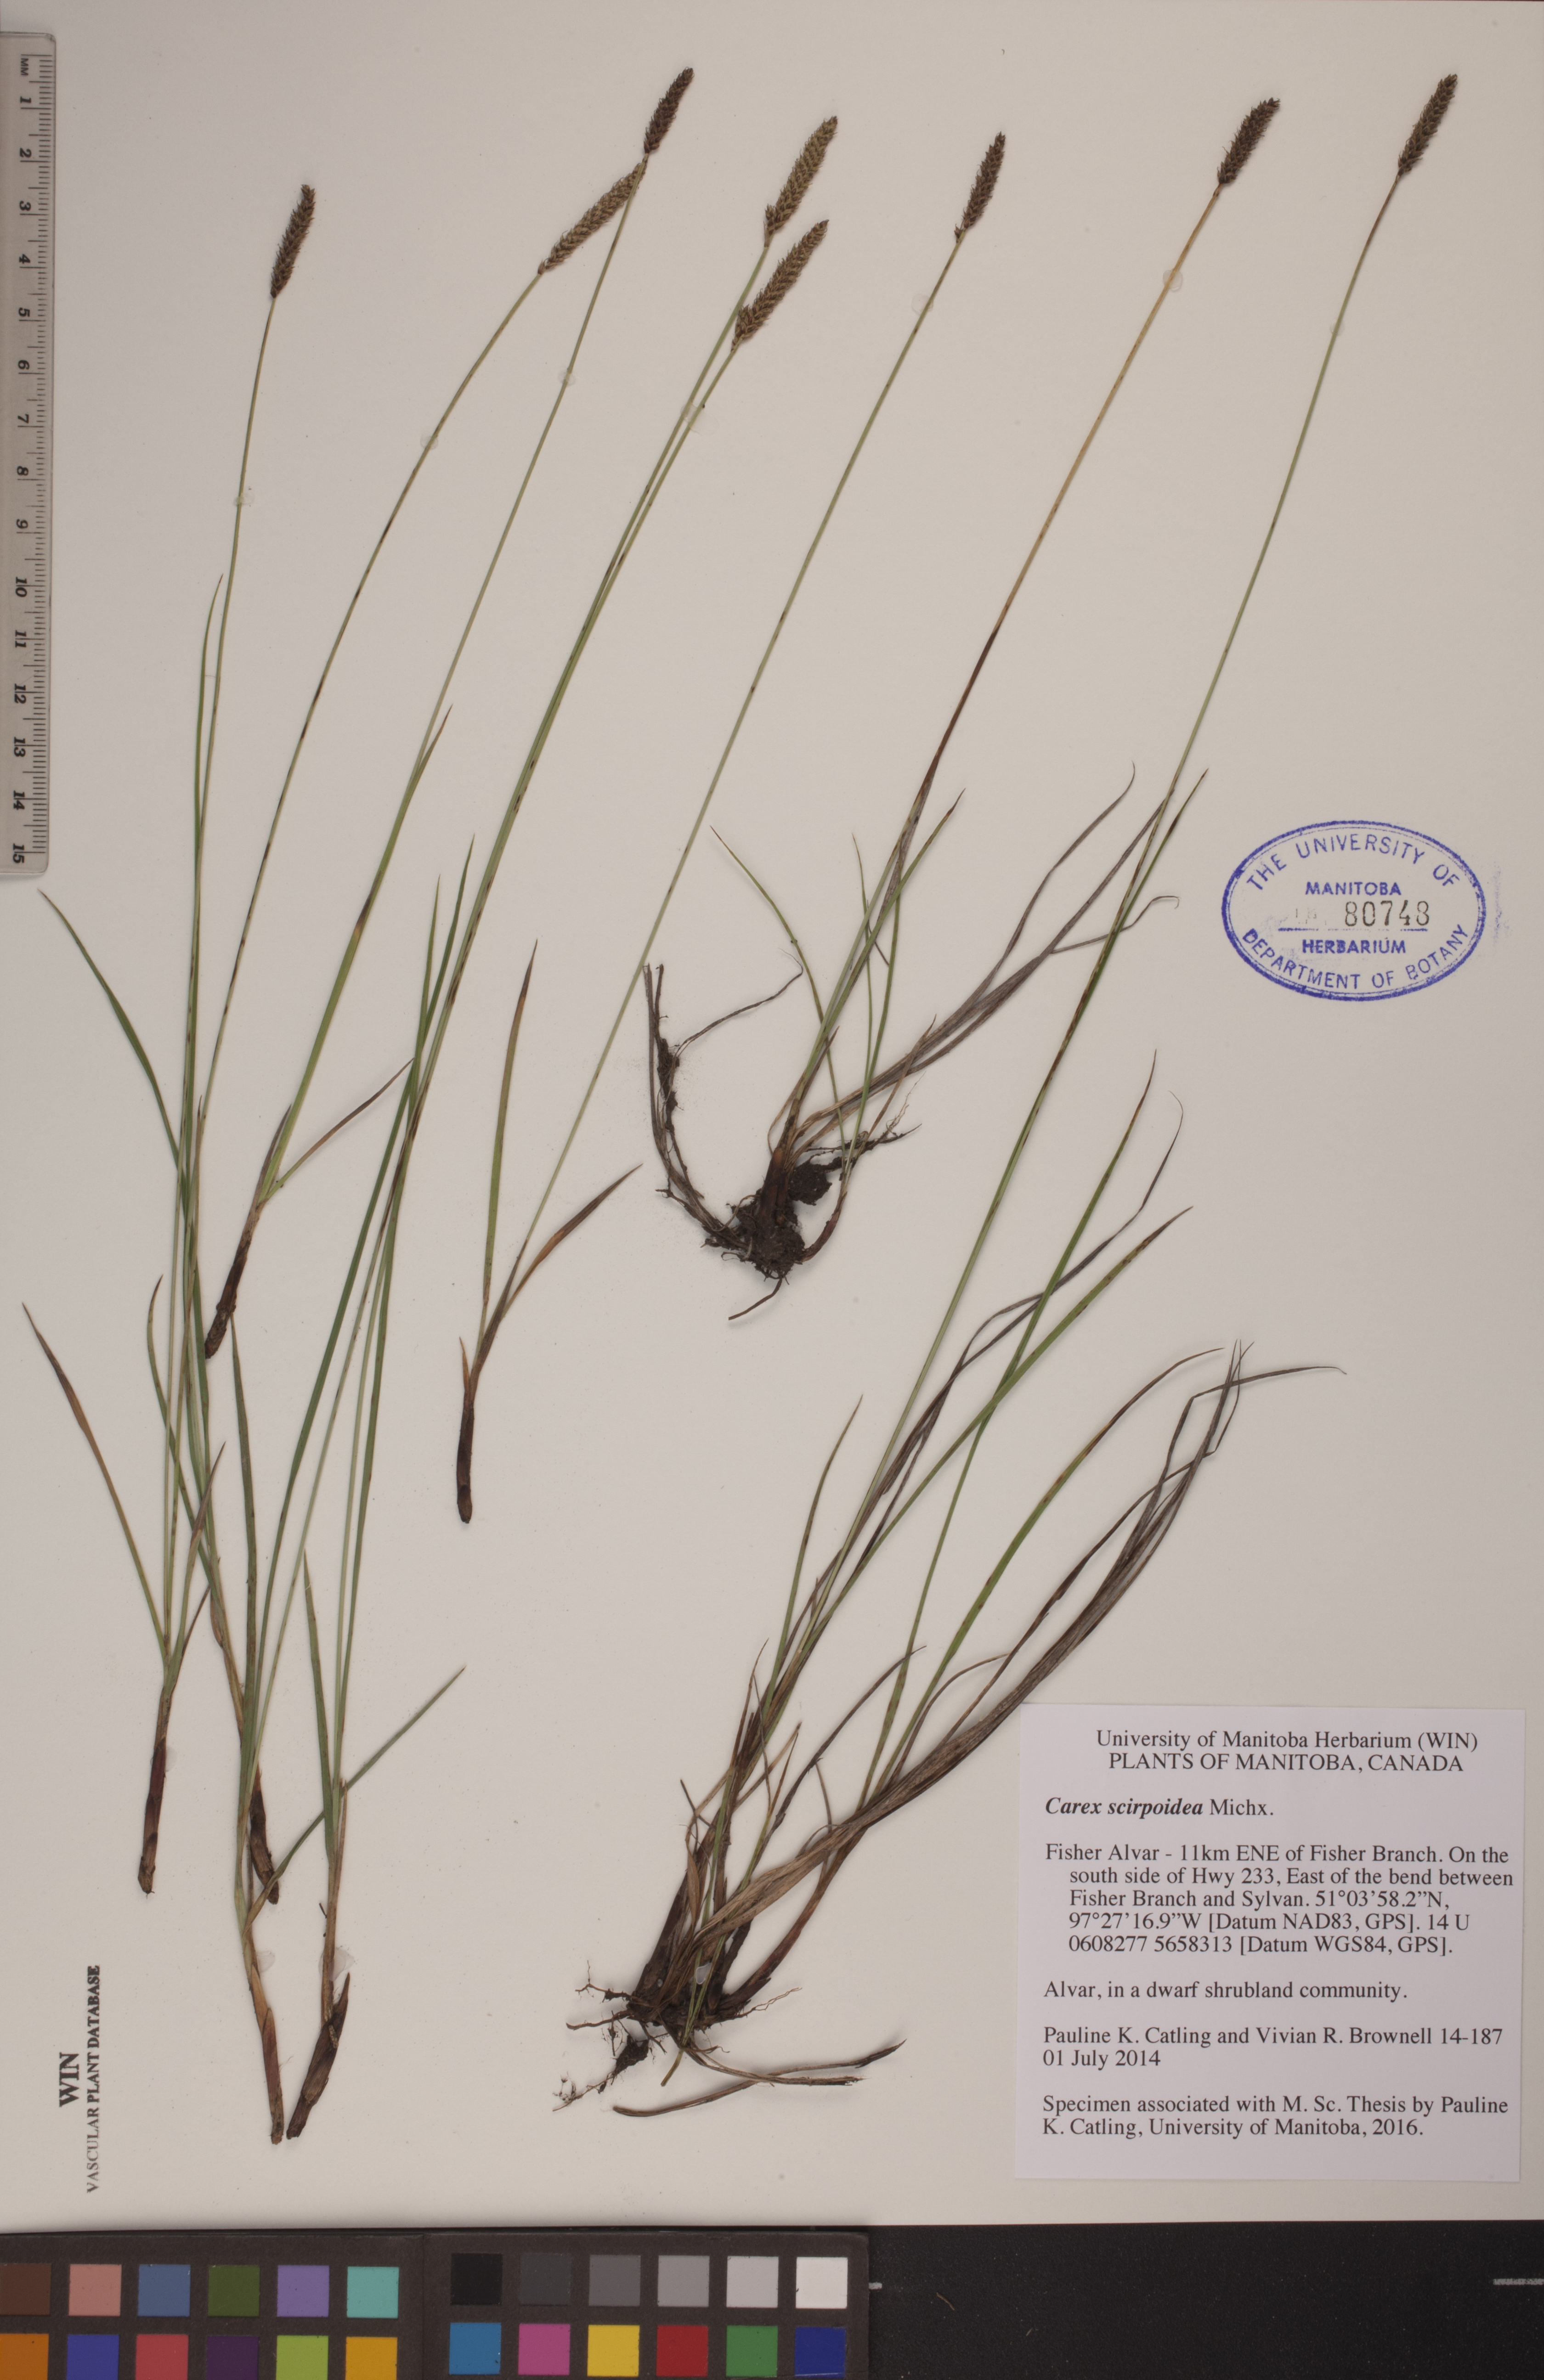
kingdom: Plantae
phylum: Tracheophyta
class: Liliopsida
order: Poales
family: Cyperaceae
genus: Carex
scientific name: Carex scirpoidea
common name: Canada single-spike sedge
